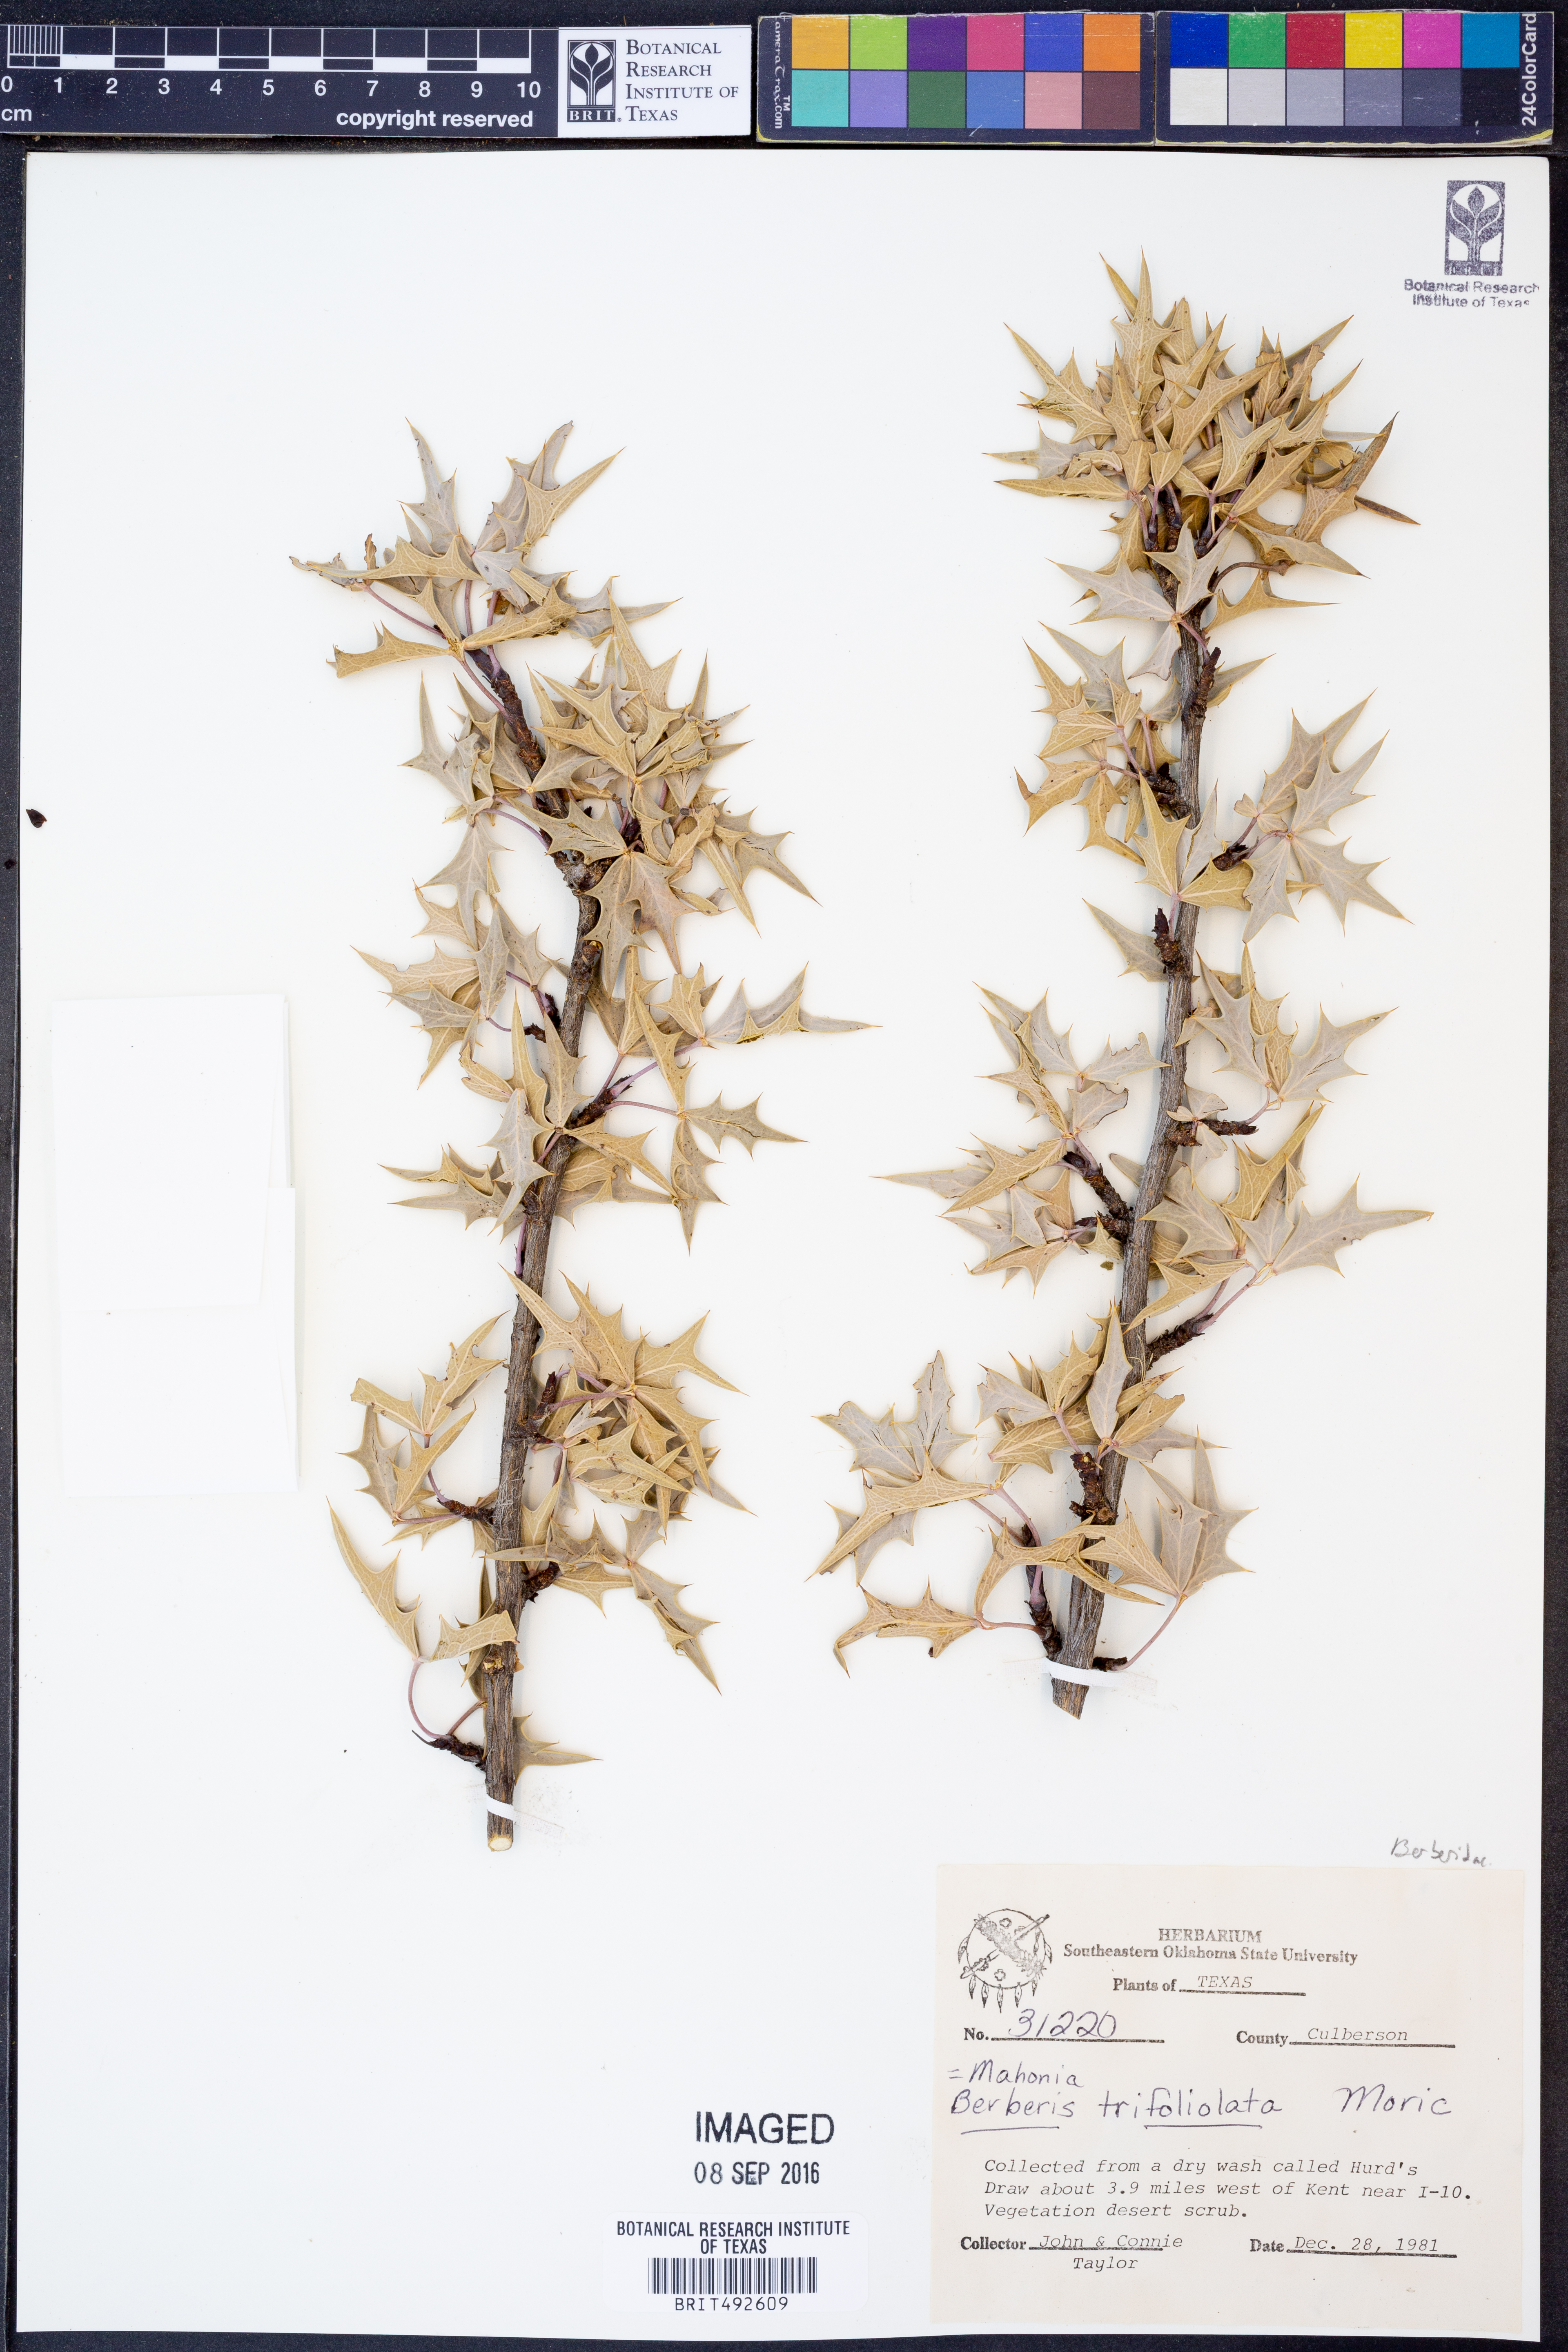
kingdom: Plantae
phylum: Tracheophyta
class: Magnoliopsida
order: Ranunculales
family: Berberidaceae
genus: Alloberberis
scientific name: Alloberberis trifoliolata
